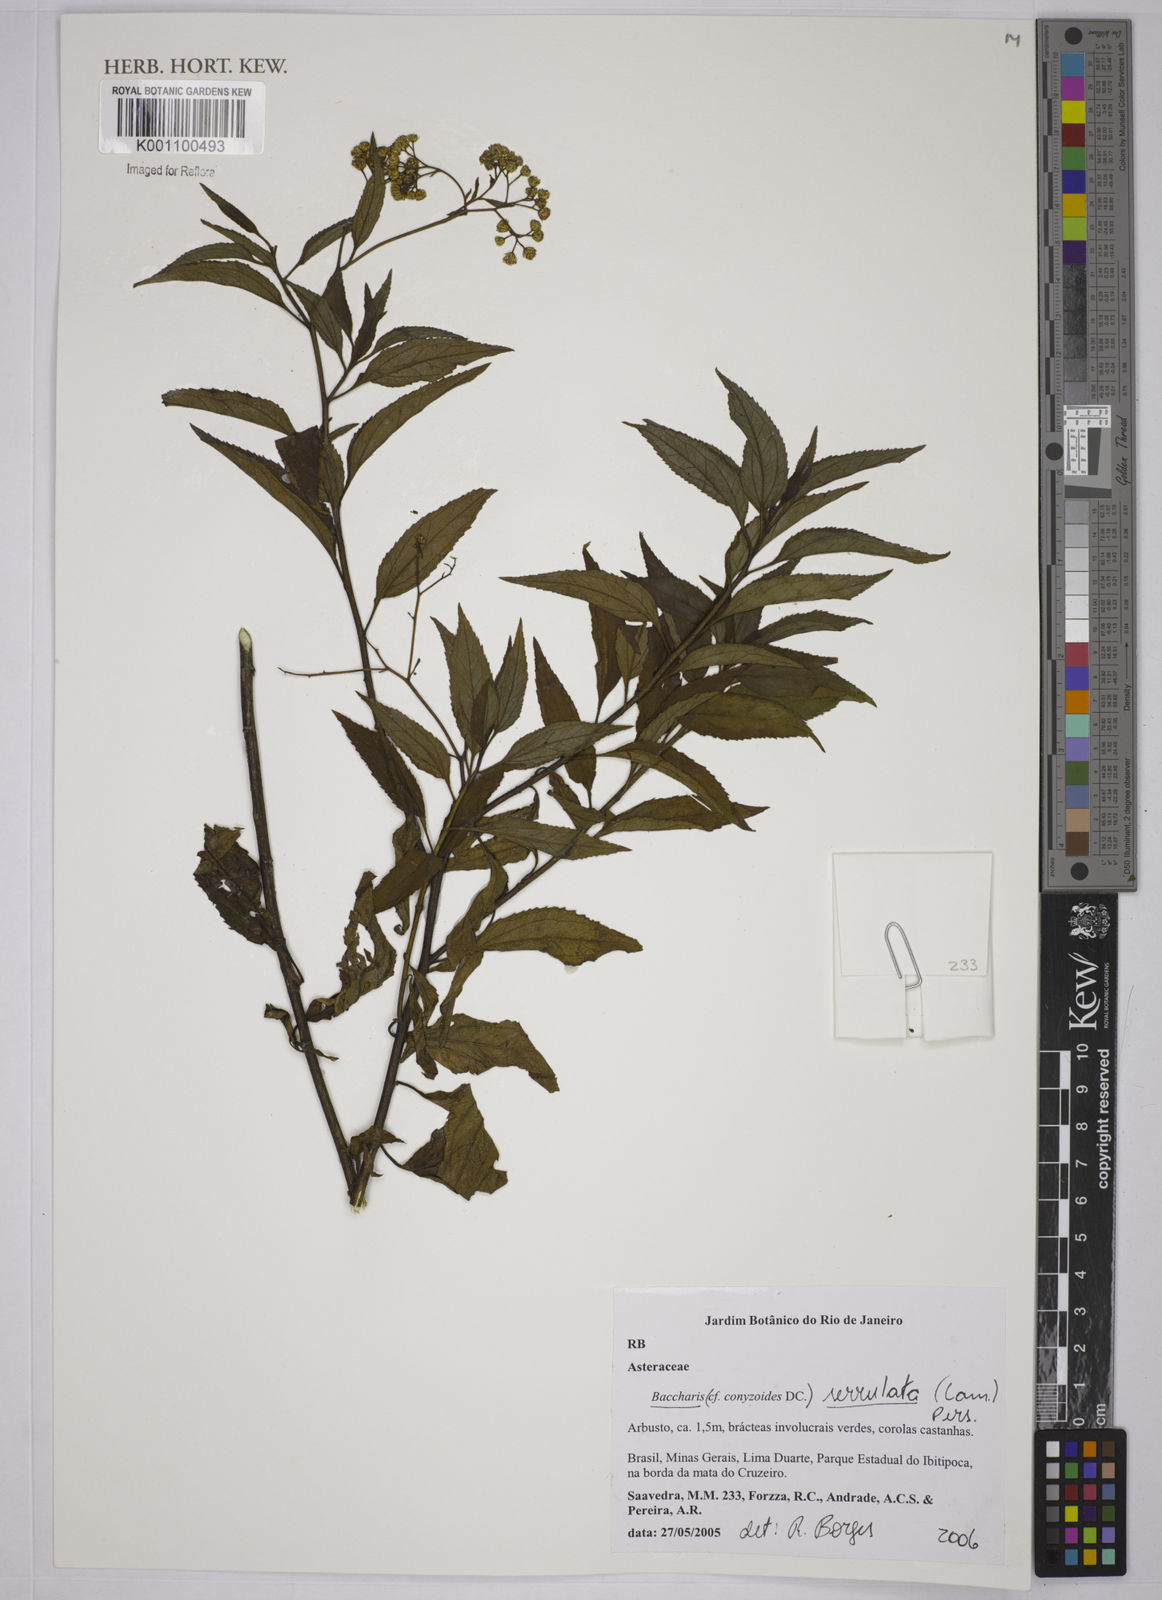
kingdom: Plantae
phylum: Tracheophyta
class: Magnoliopsida
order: Asterales
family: Asteraceae
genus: Baccharis
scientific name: Baccharis serrulata
